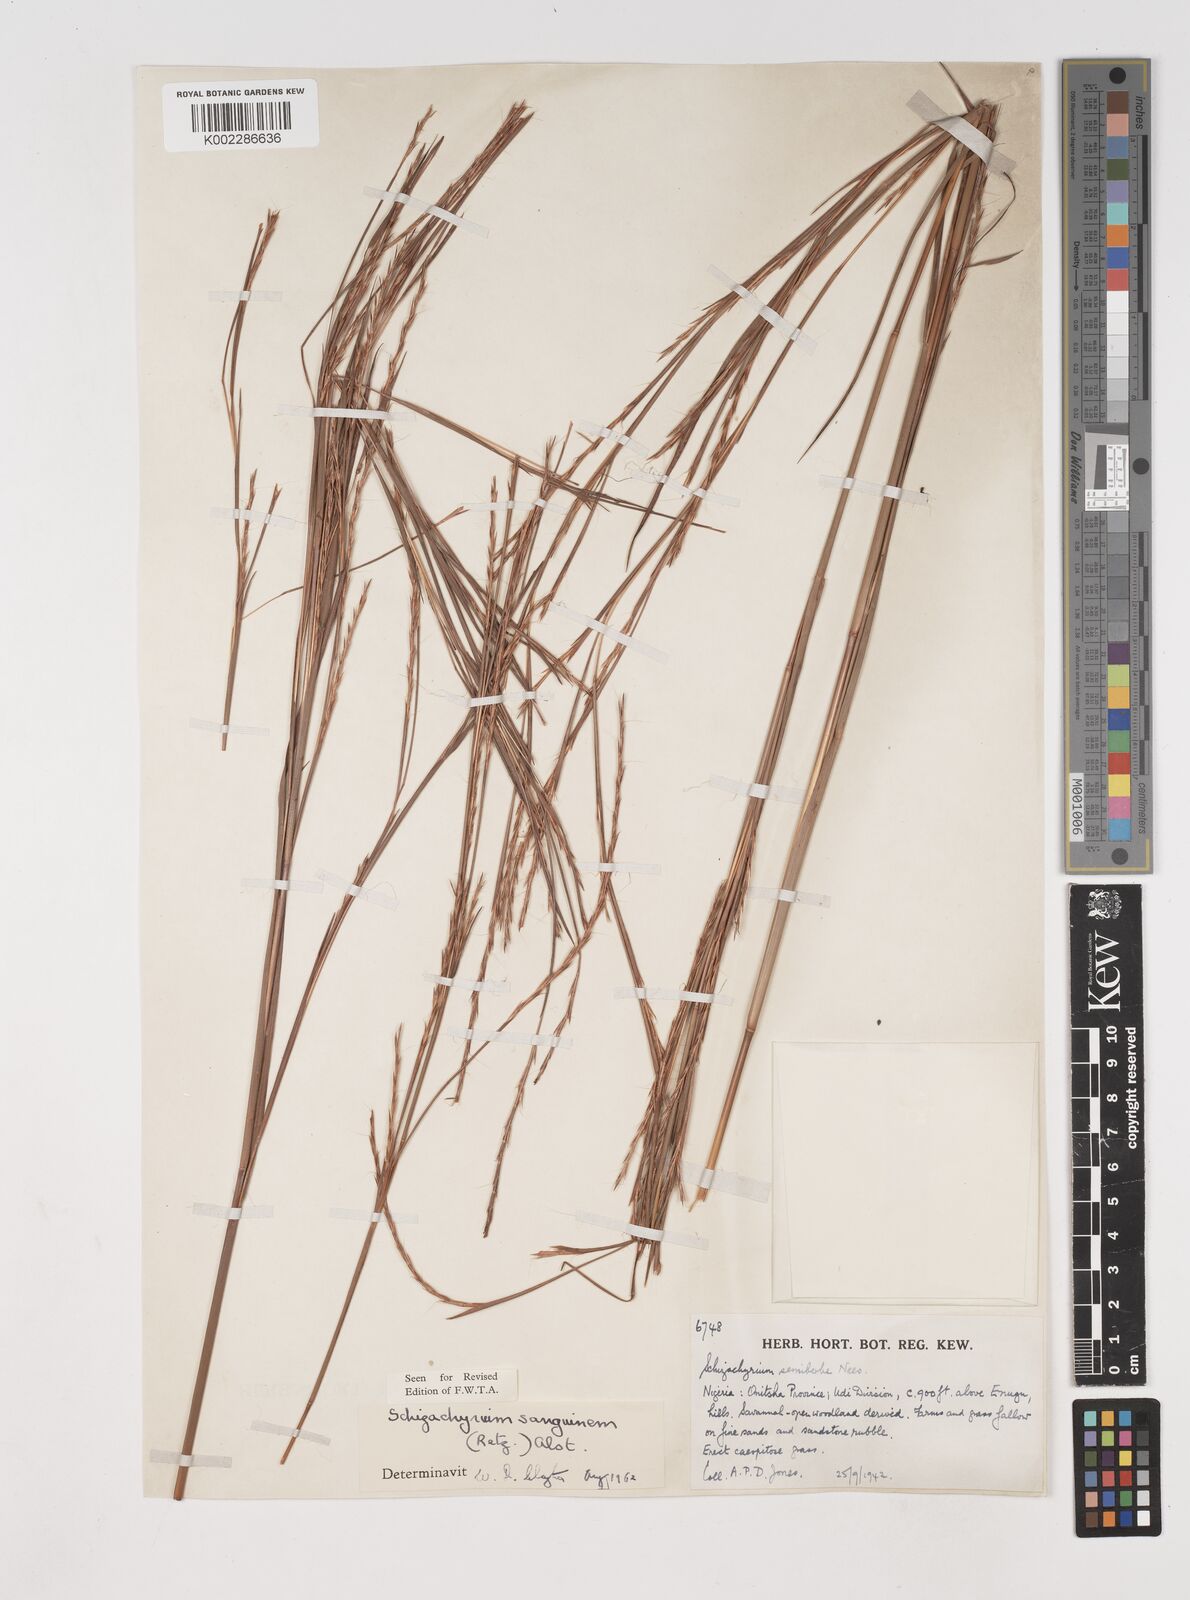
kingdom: Plantae
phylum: Tracheophyta
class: Liliopsida
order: Poales
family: Poaceae
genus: Schizachyrium
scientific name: Schizachyrium sanguineum
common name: Crimson bluestem
